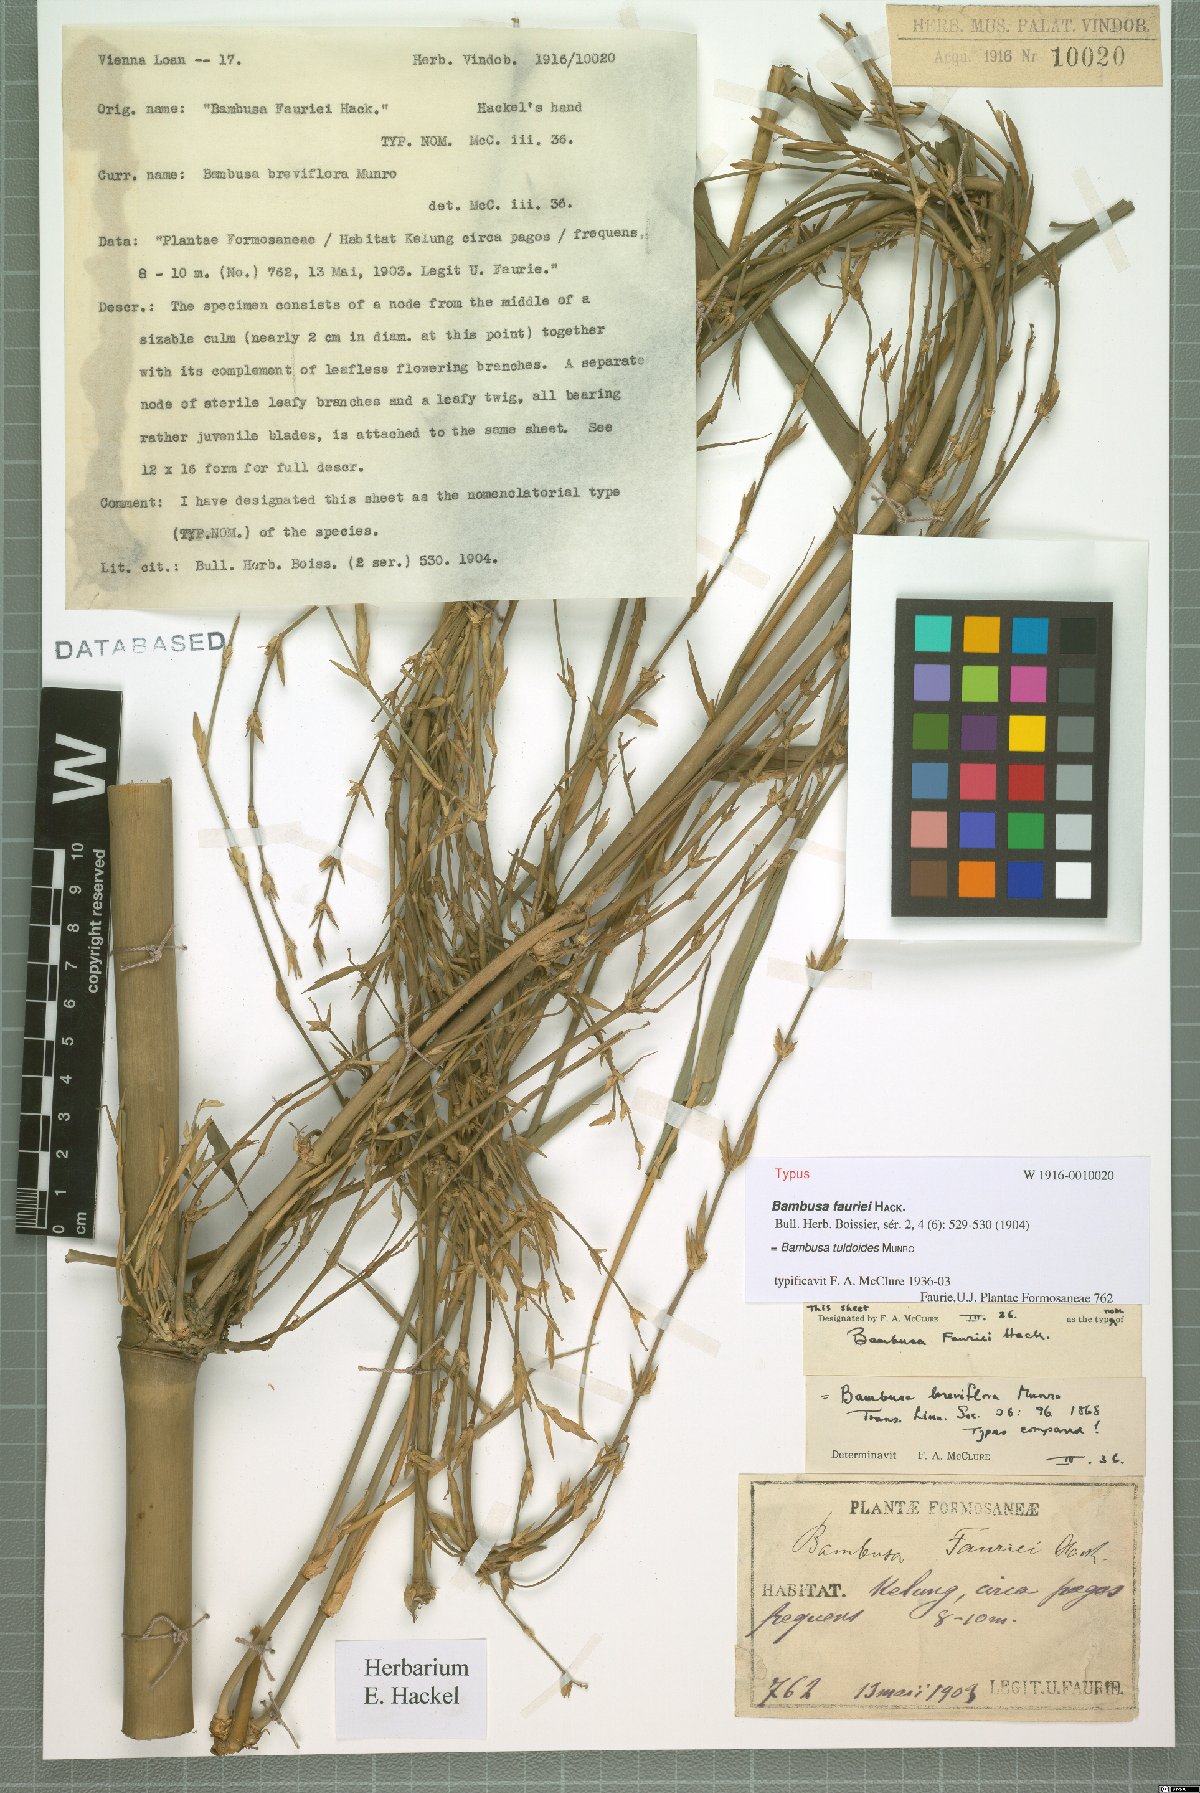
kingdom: Plantae
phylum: Tracheophyta
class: Liliopsida
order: Poales
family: Poaceae
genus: Bambusa
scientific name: Bambusa tuldoides
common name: Verdant bamboo
